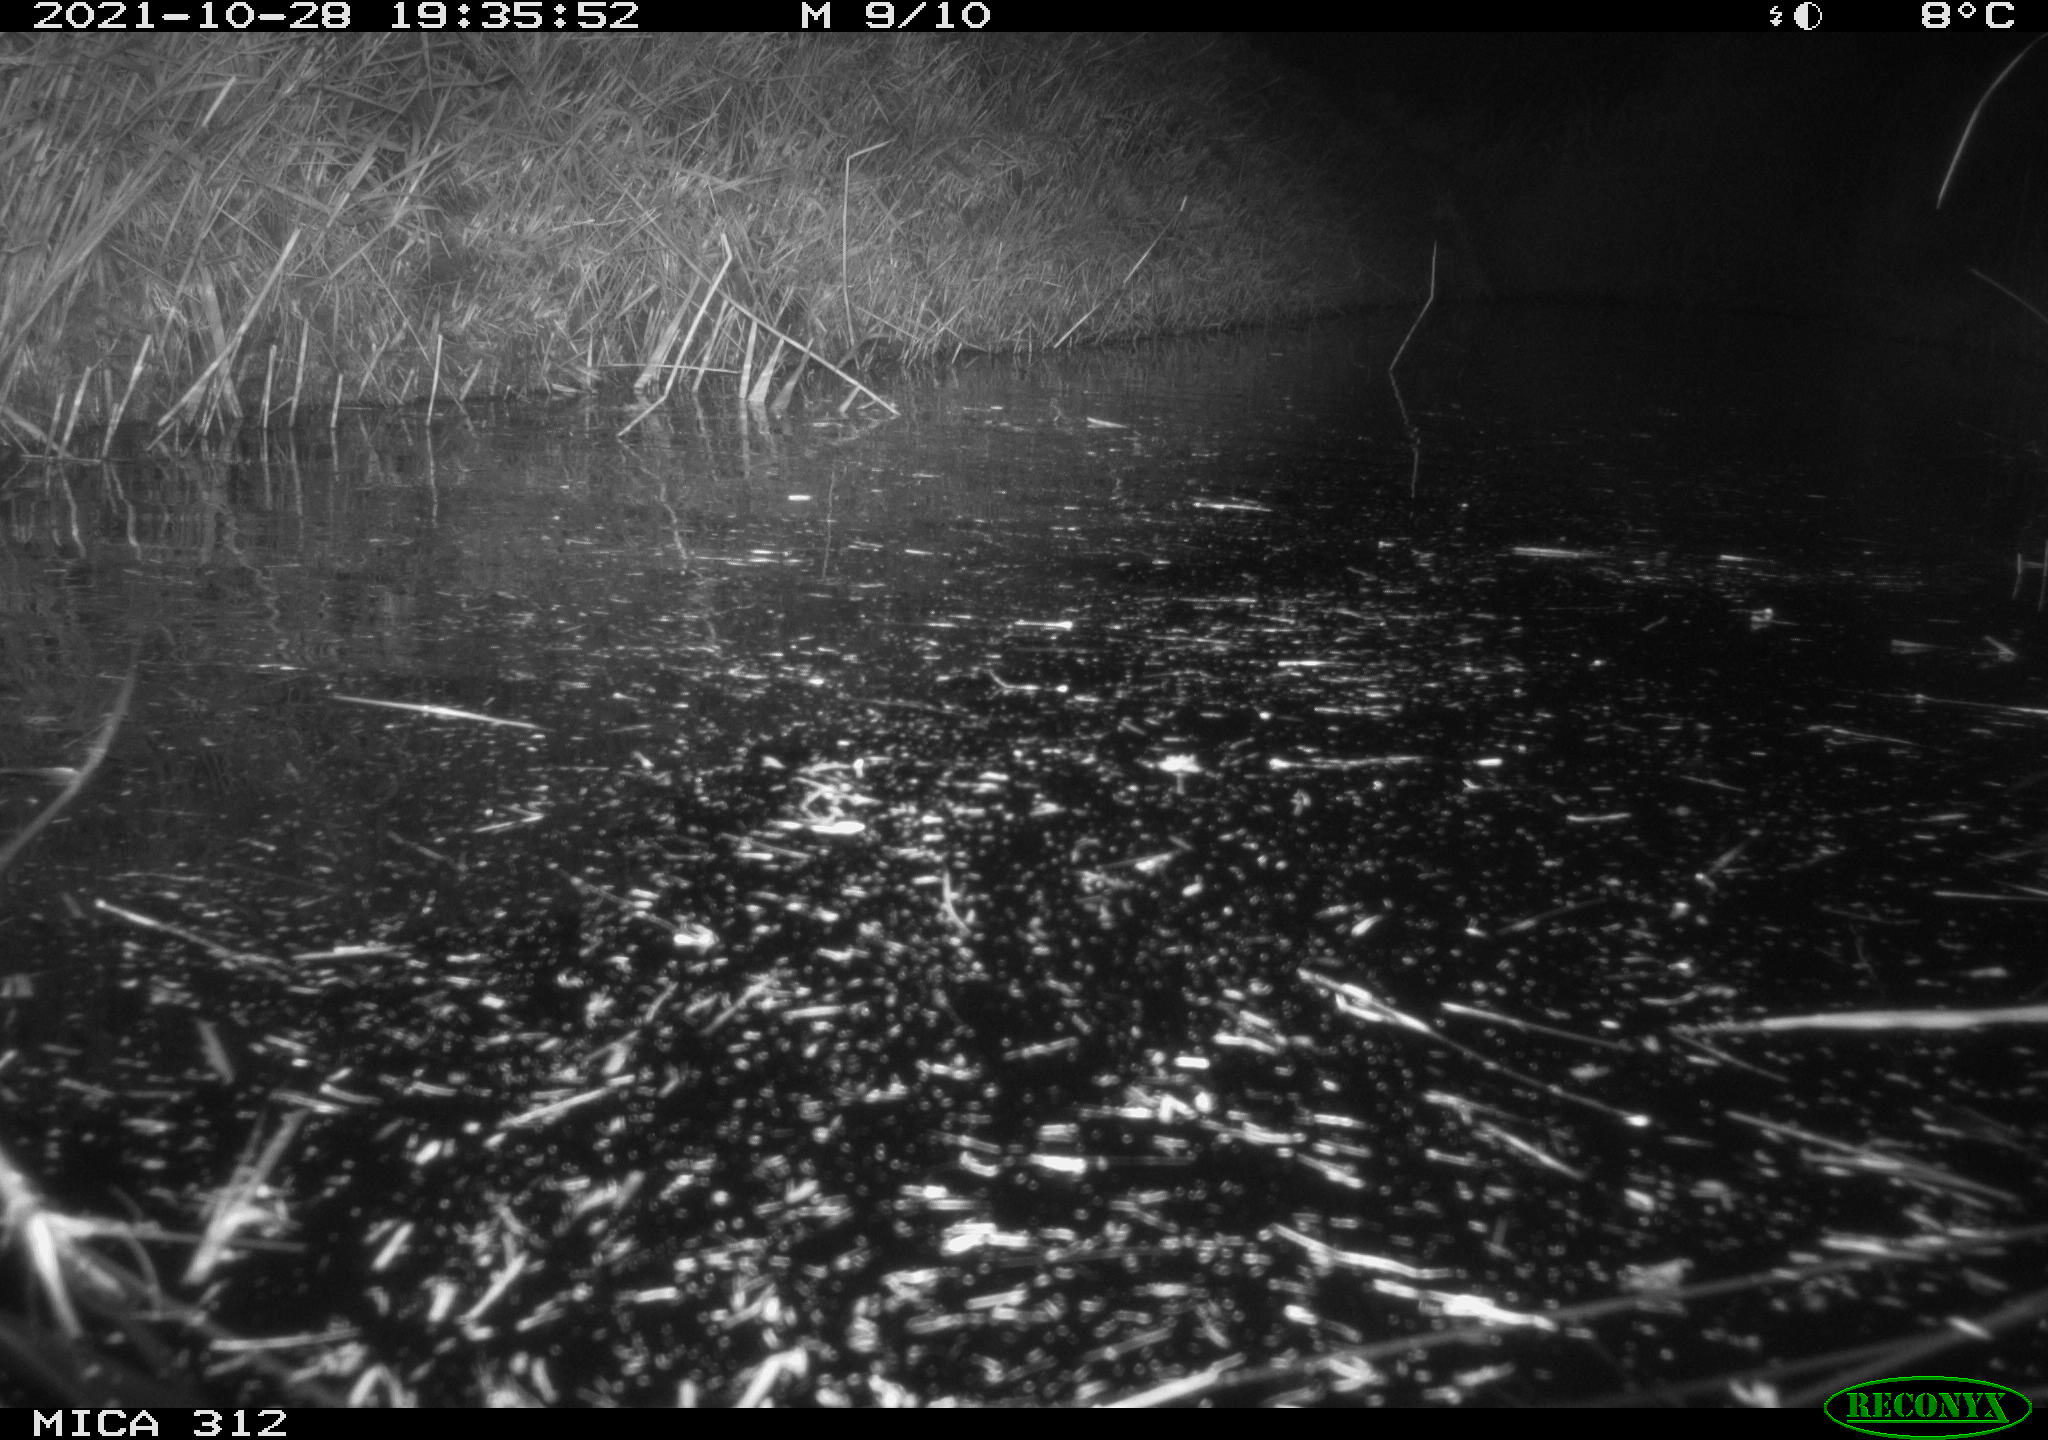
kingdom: Animalia
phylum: Chordata
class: Mammalia
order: Rodentia
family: Cricetidae
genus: Ondatra
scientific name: Ondatra zibethicus
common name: Muskrat
